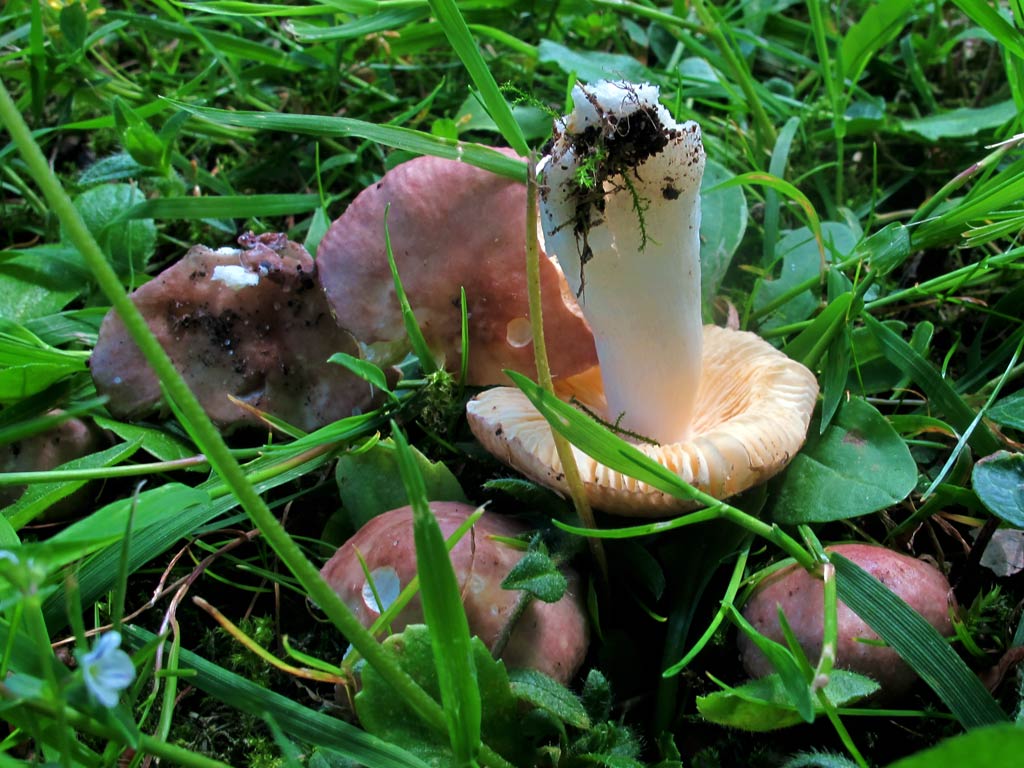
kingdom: Fungi
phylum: Basidiomycota
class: Agaricomycetes
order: Russulales
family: Russulaceae
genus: Russula
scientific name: Russula odorata
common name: duft-skørhat
